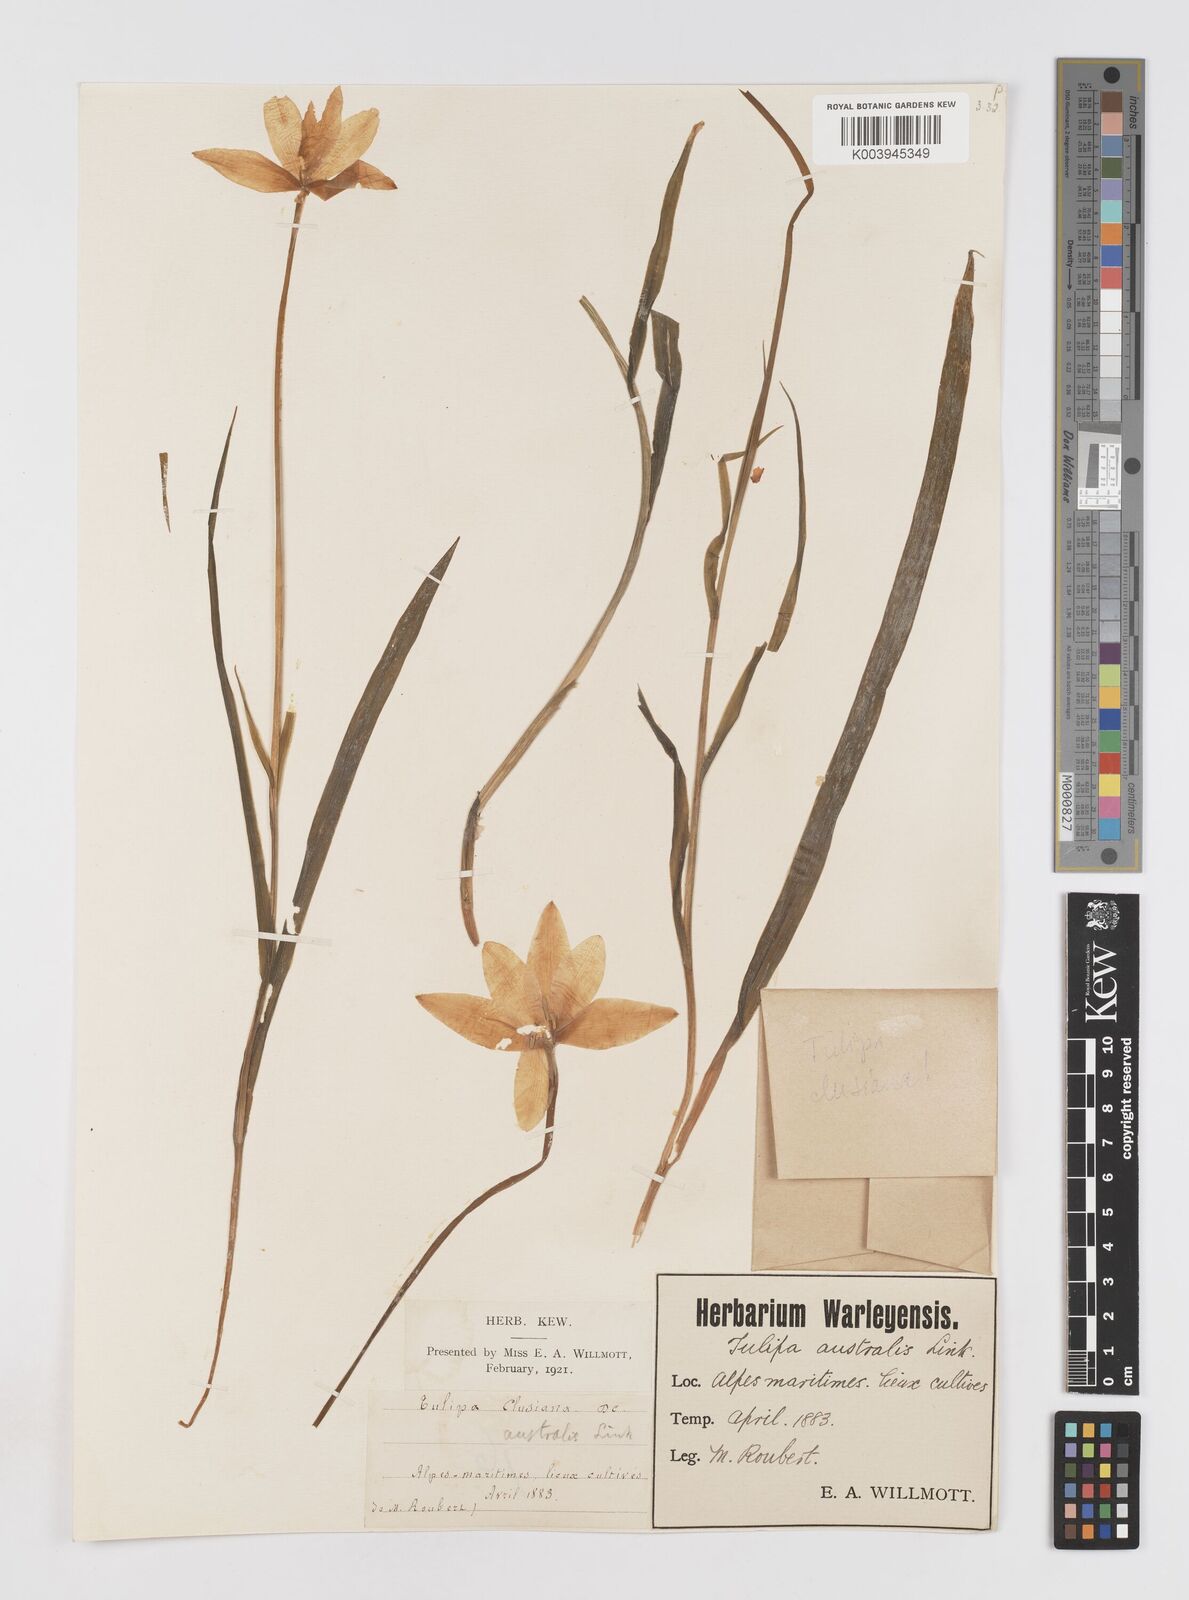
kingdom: Plantae
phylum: Tracheophyta
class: Liliopsida
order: Liliales
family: Liliaceae
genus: Tulipa
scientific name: Tulipa clusiana
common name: Lady tulip
